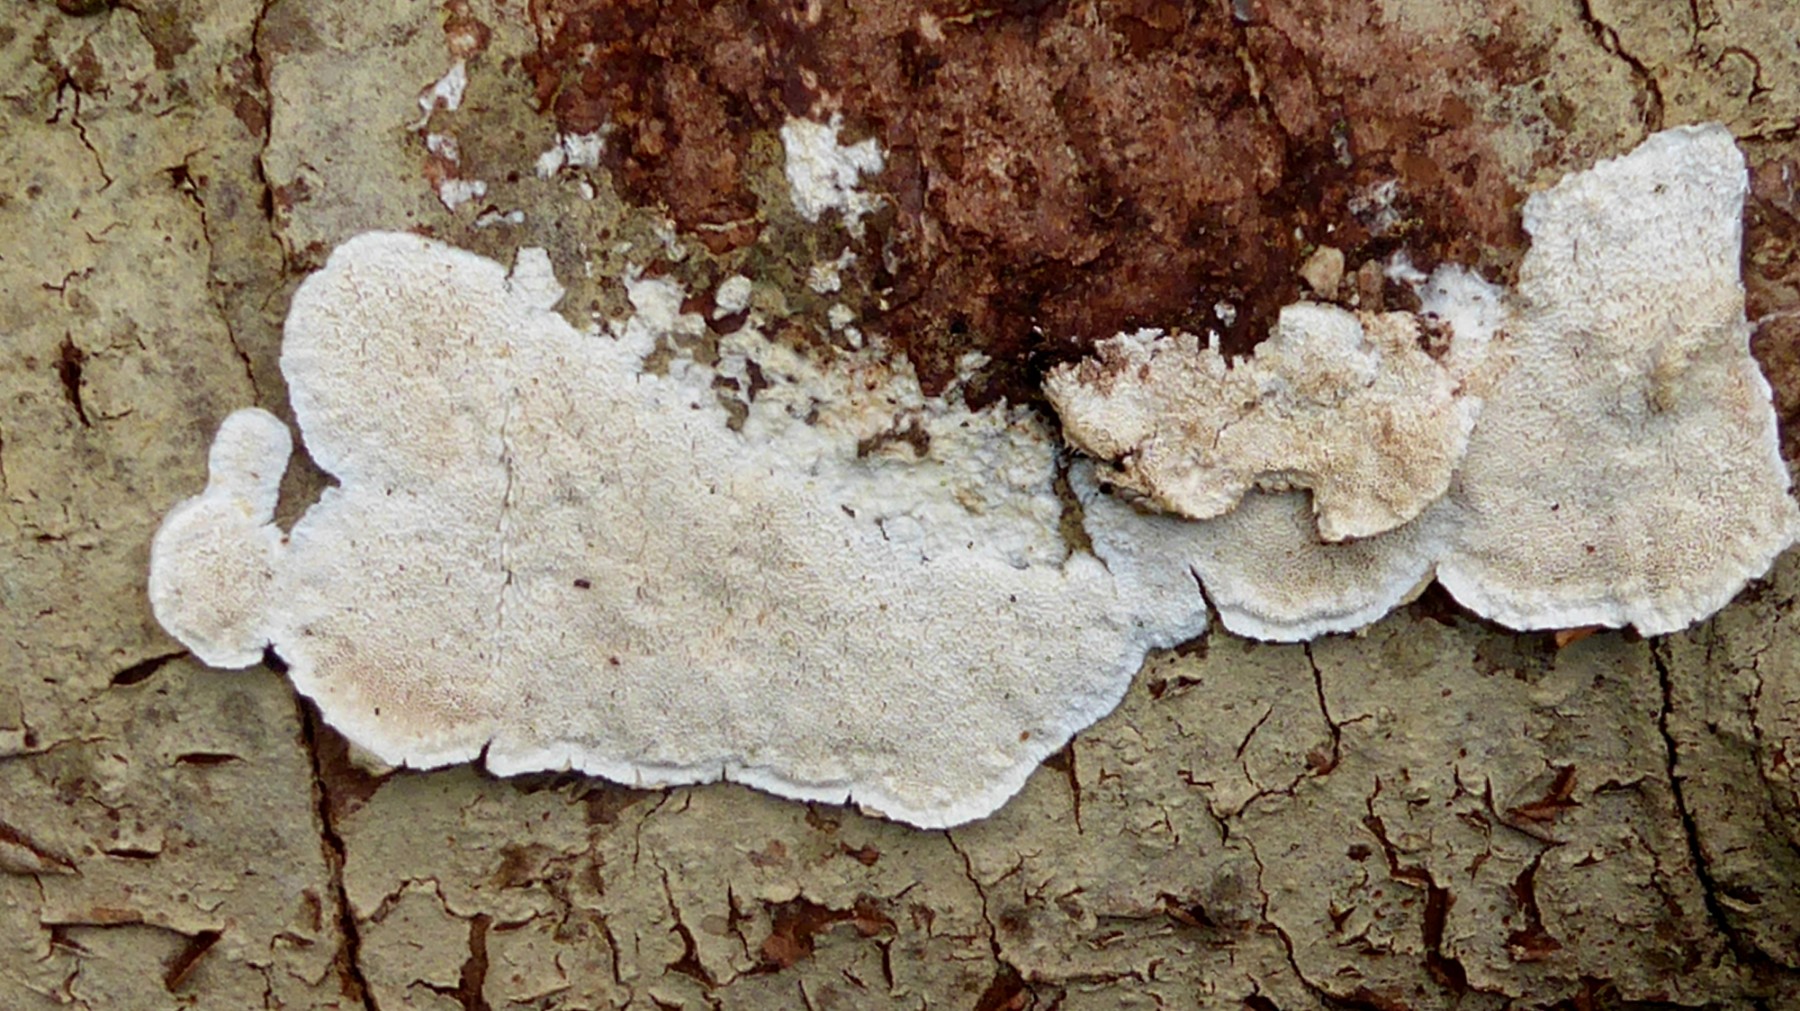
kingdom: Fungi
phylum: Basidiomycota
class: Agaricomycetes
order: Polyporales
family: Gelatoporiaceae
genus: Cinereomyces
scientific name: Cinereomyces lindbladii
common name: almindelig gråporesvamp
